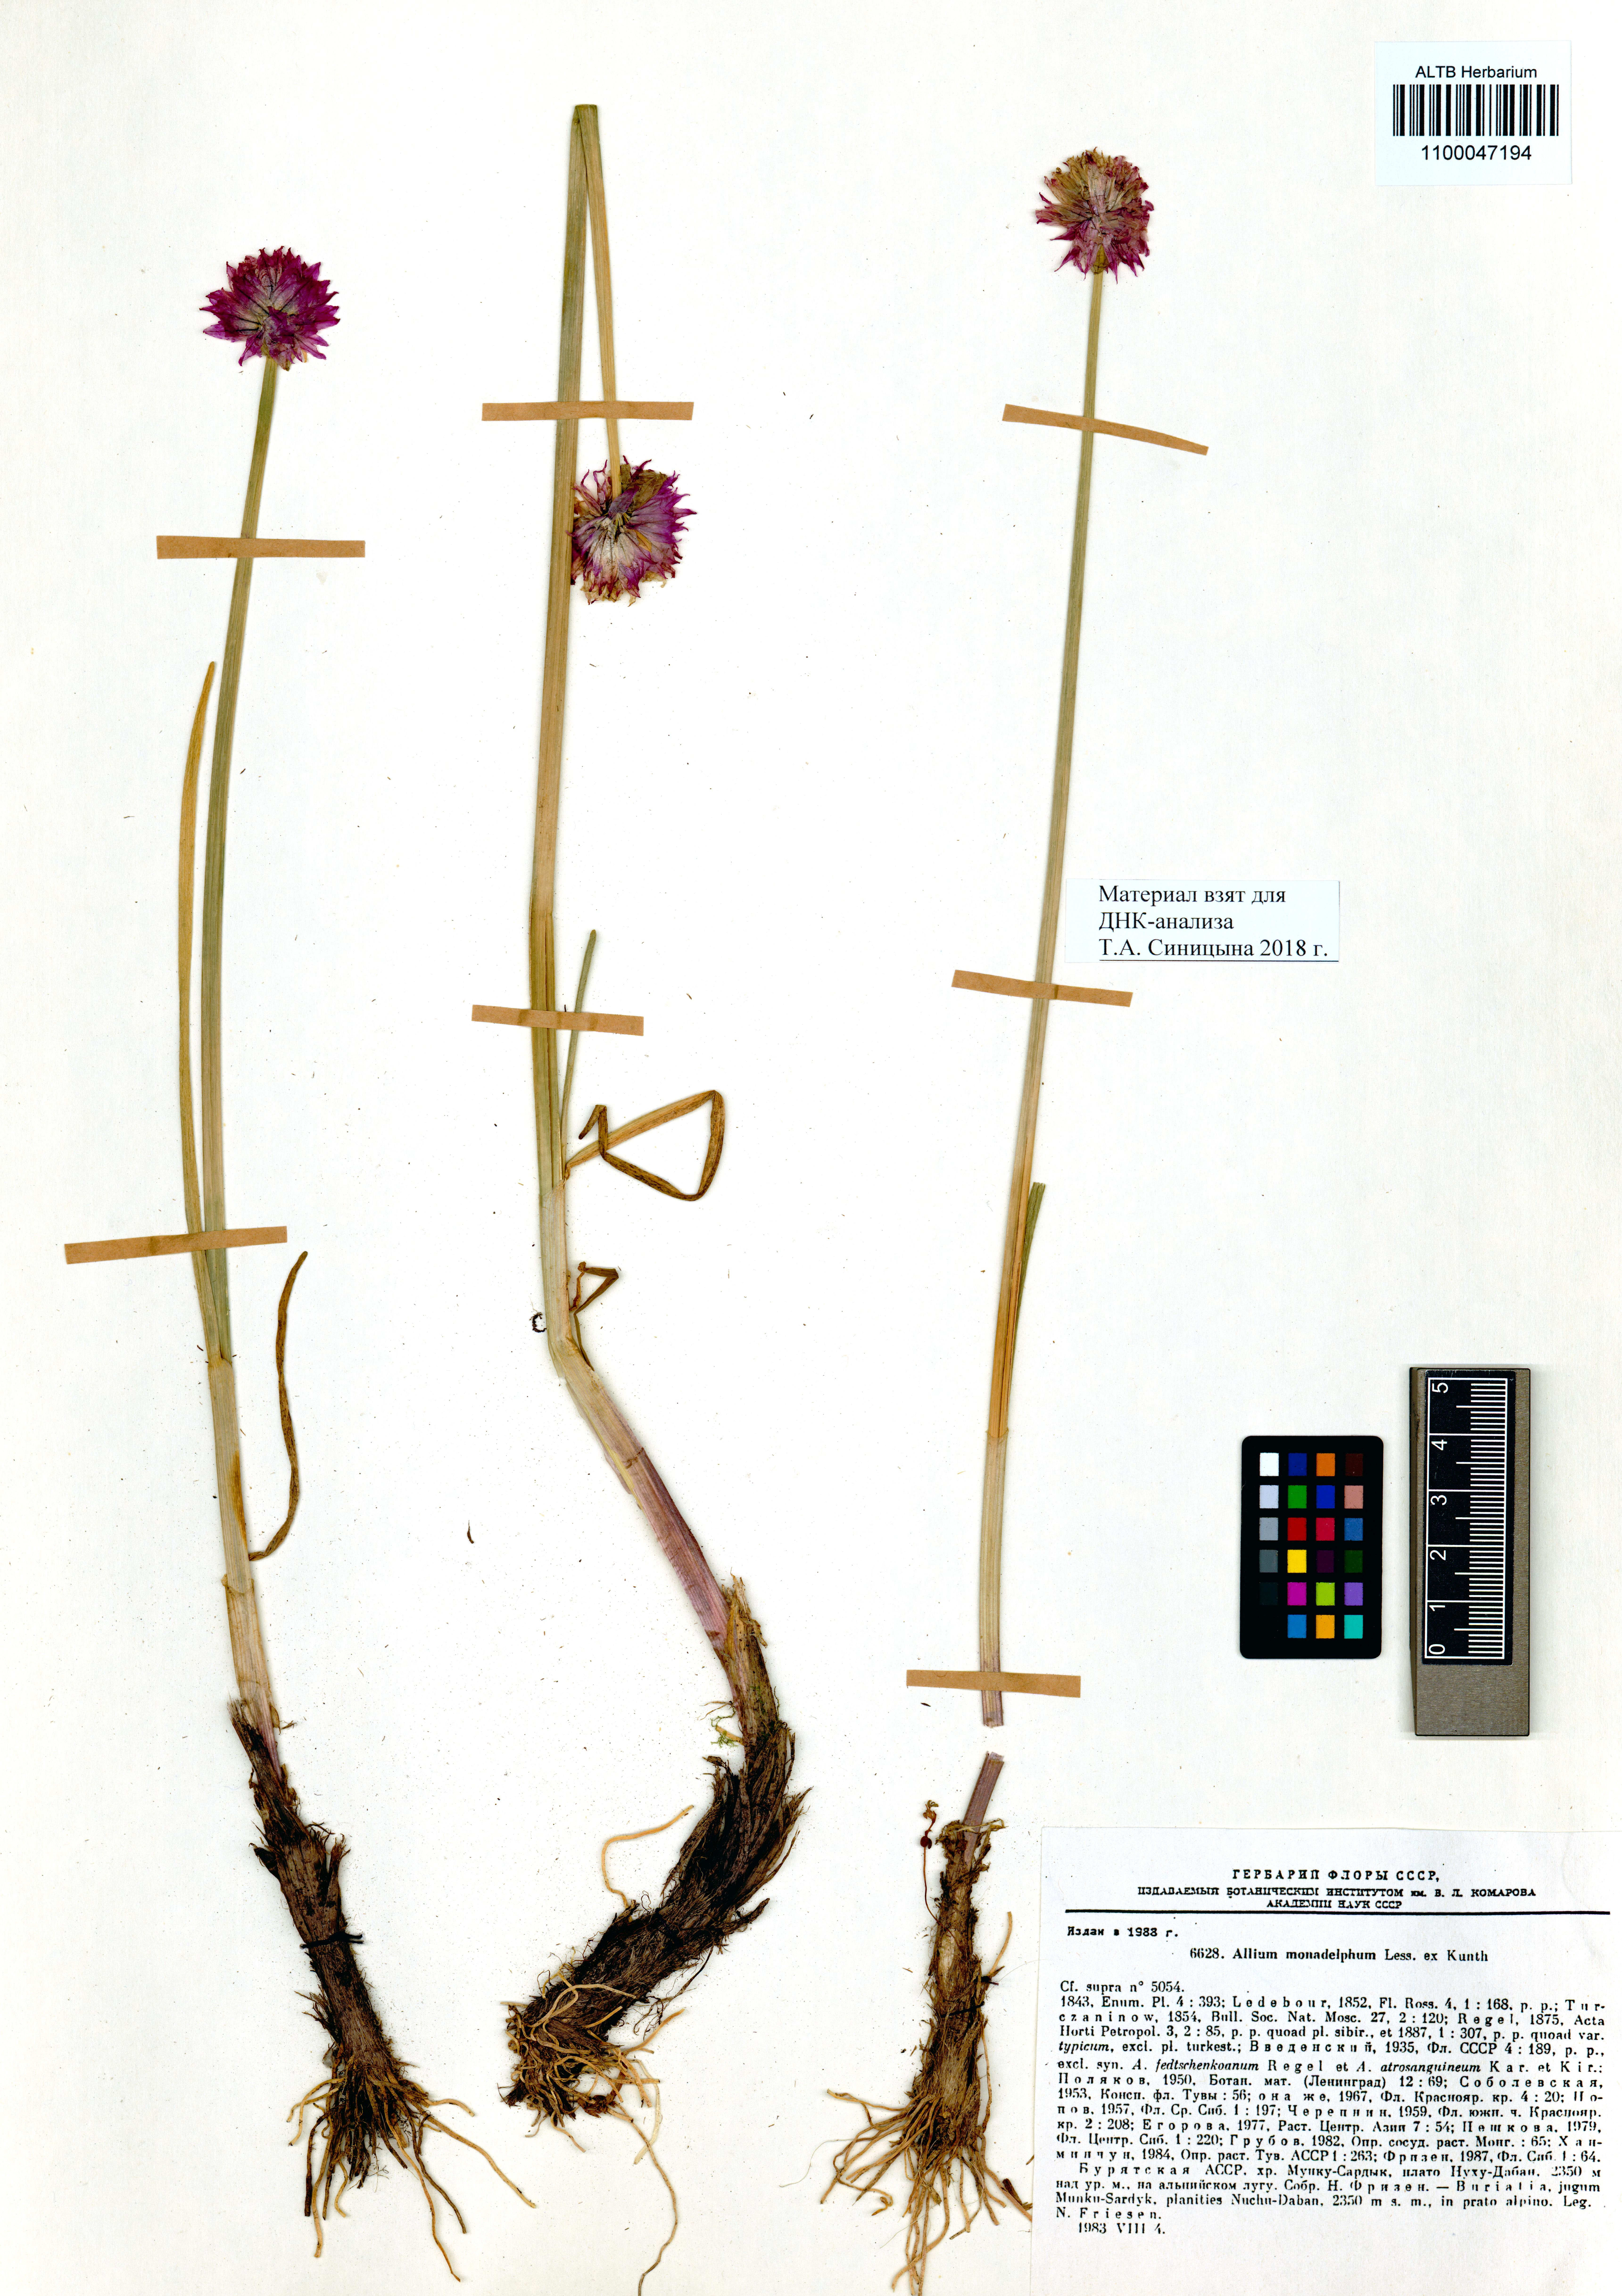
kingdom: Plantae
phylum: Tracheophyta
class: Liliopsida
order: Asparagales
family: Amaryllidaceae
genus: Allium
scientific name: Allium atrosanguineum
